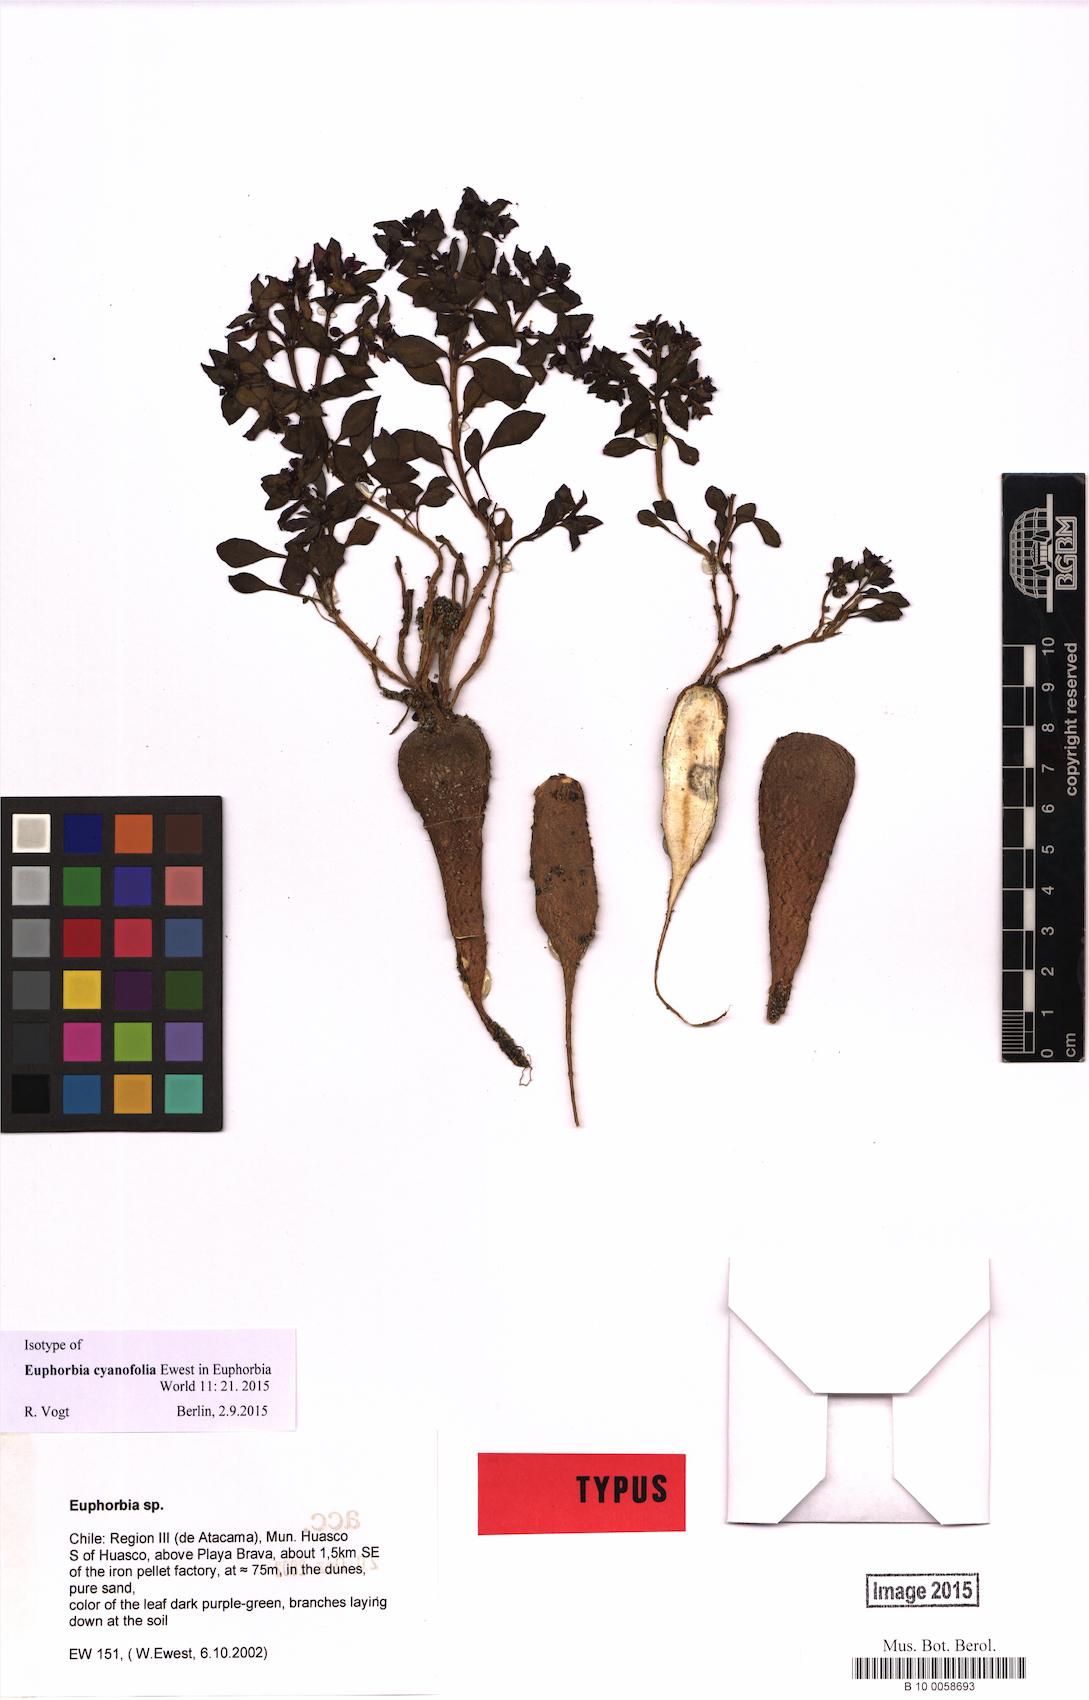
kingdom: Plantae
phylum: Tracheophyta
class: Magnoliopsida
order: Malpighiales
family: Euphorbiaceae
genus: Euphorbia
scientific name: Euphorbia cyanofolia
